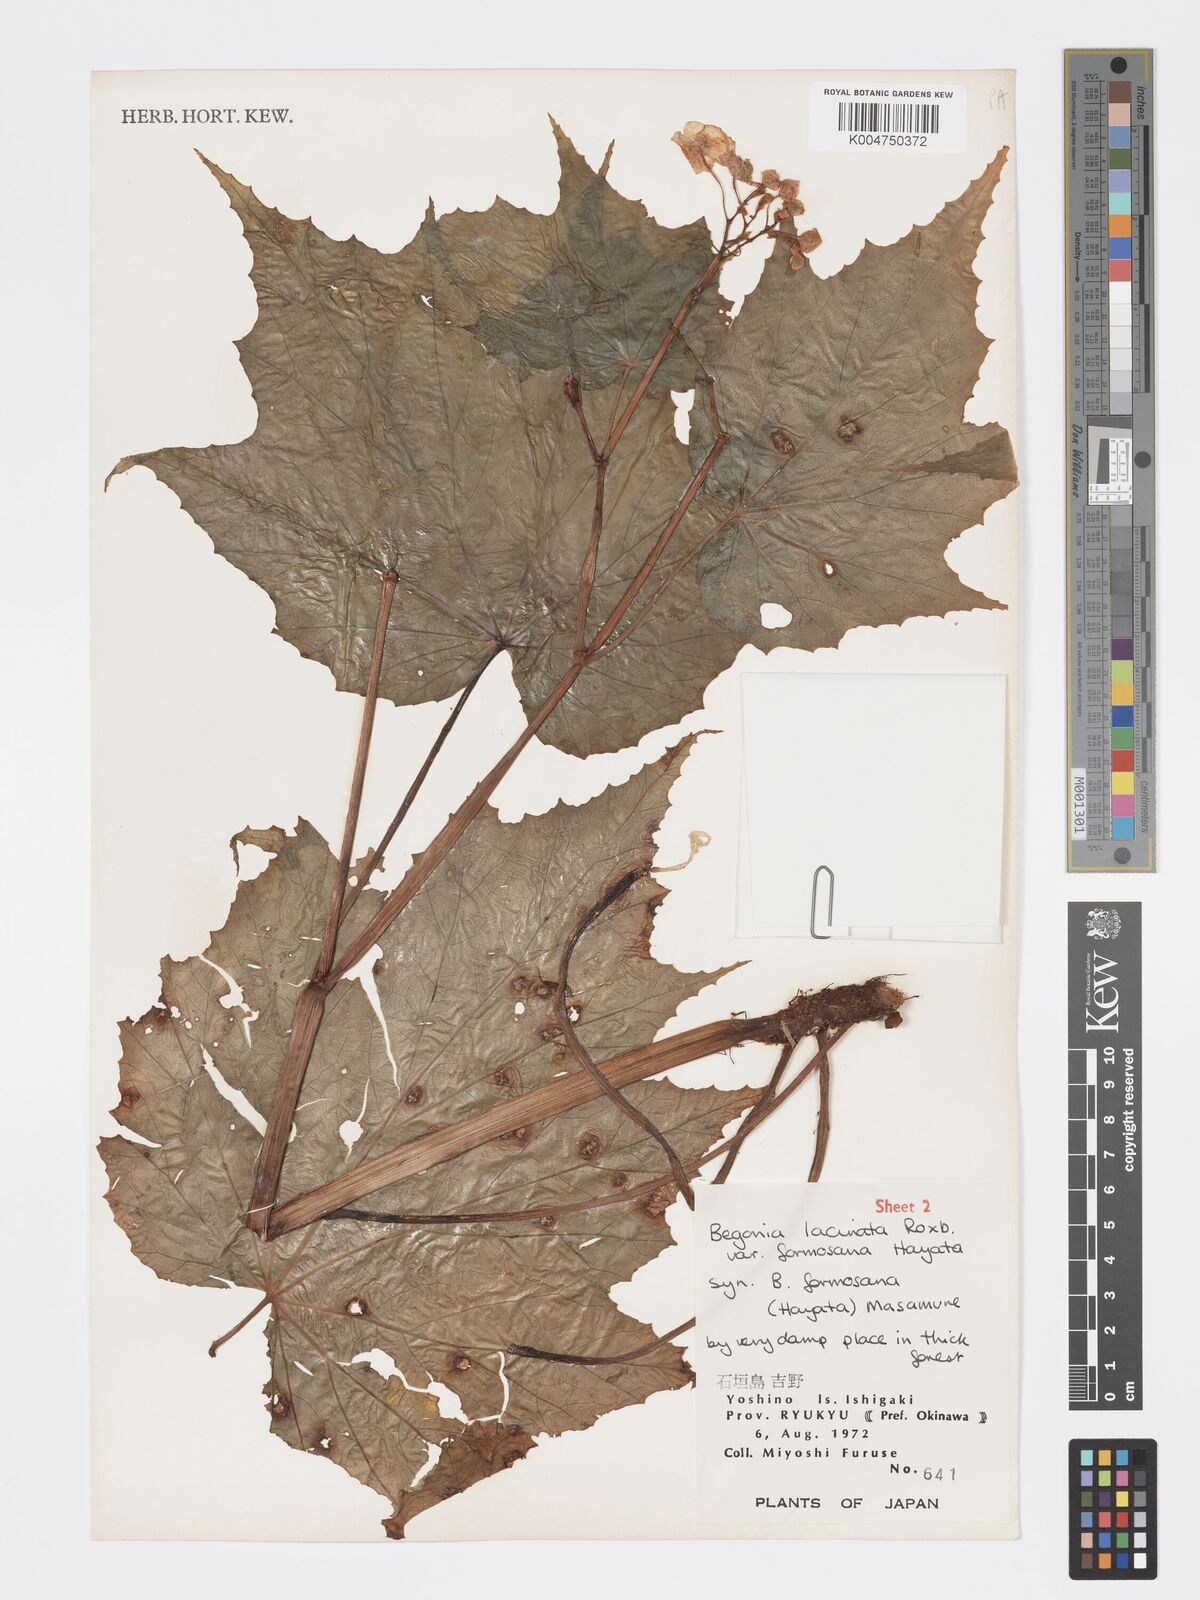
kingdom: Plantae
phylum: Tracheophyta
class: Magnoliopsida
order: Cucurbitales
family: Begoniaceae
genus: Begonia
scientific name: Begonia palmata
